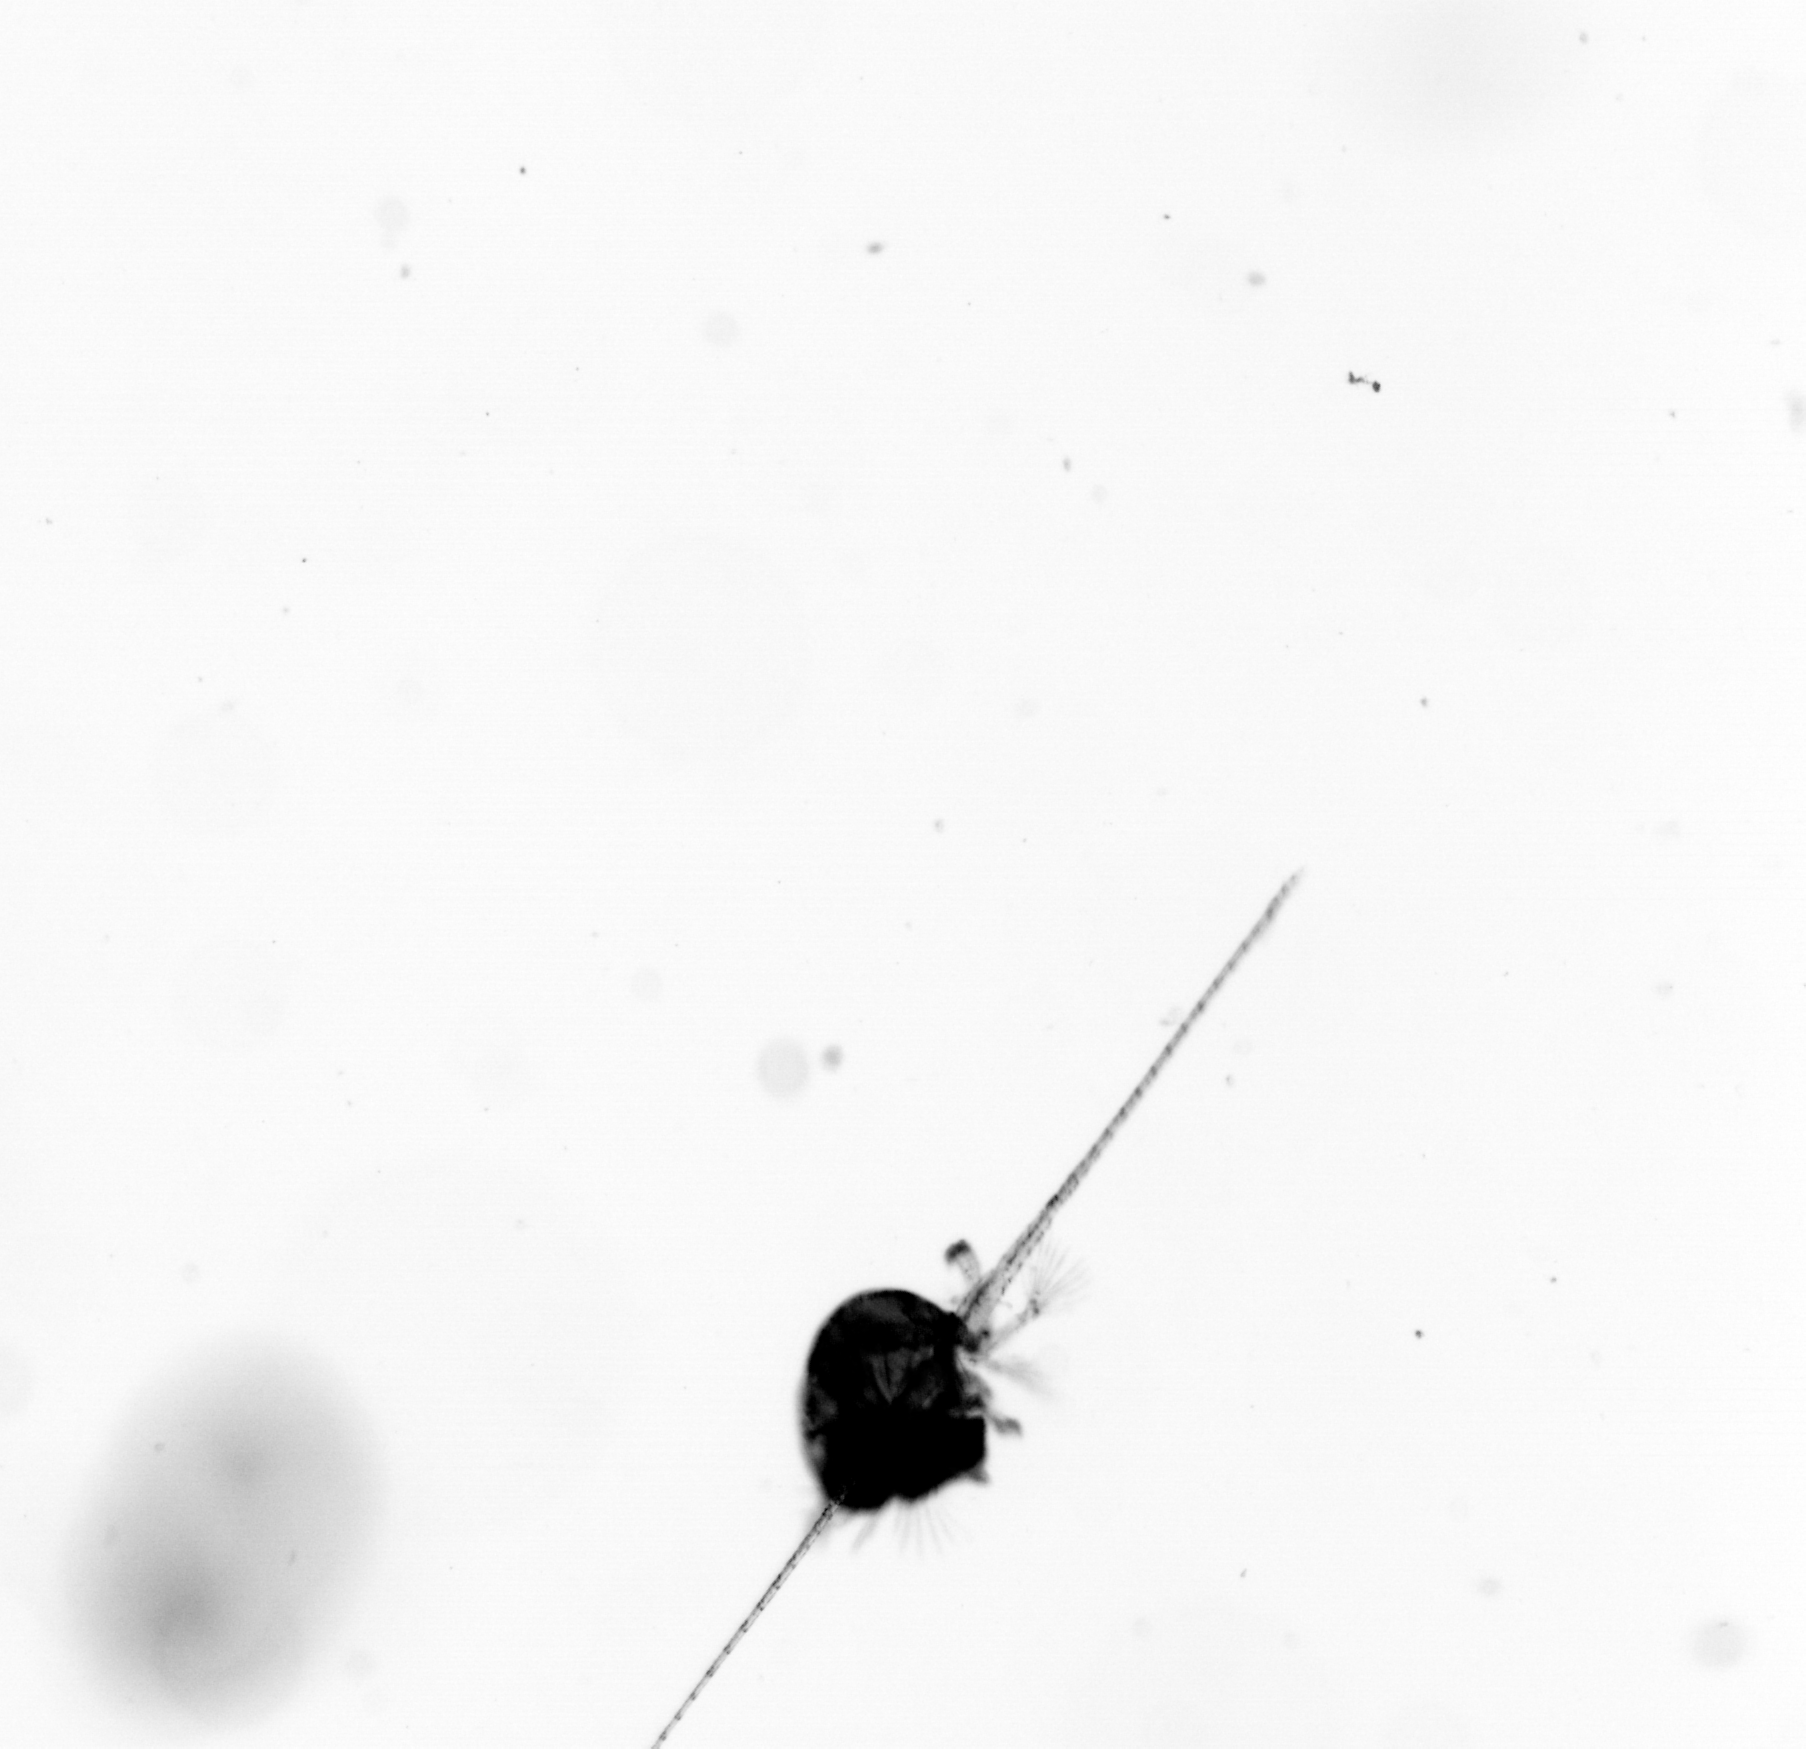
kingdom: Animalia
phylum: Arthropoda
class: Copepoda
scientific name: Copepoda
